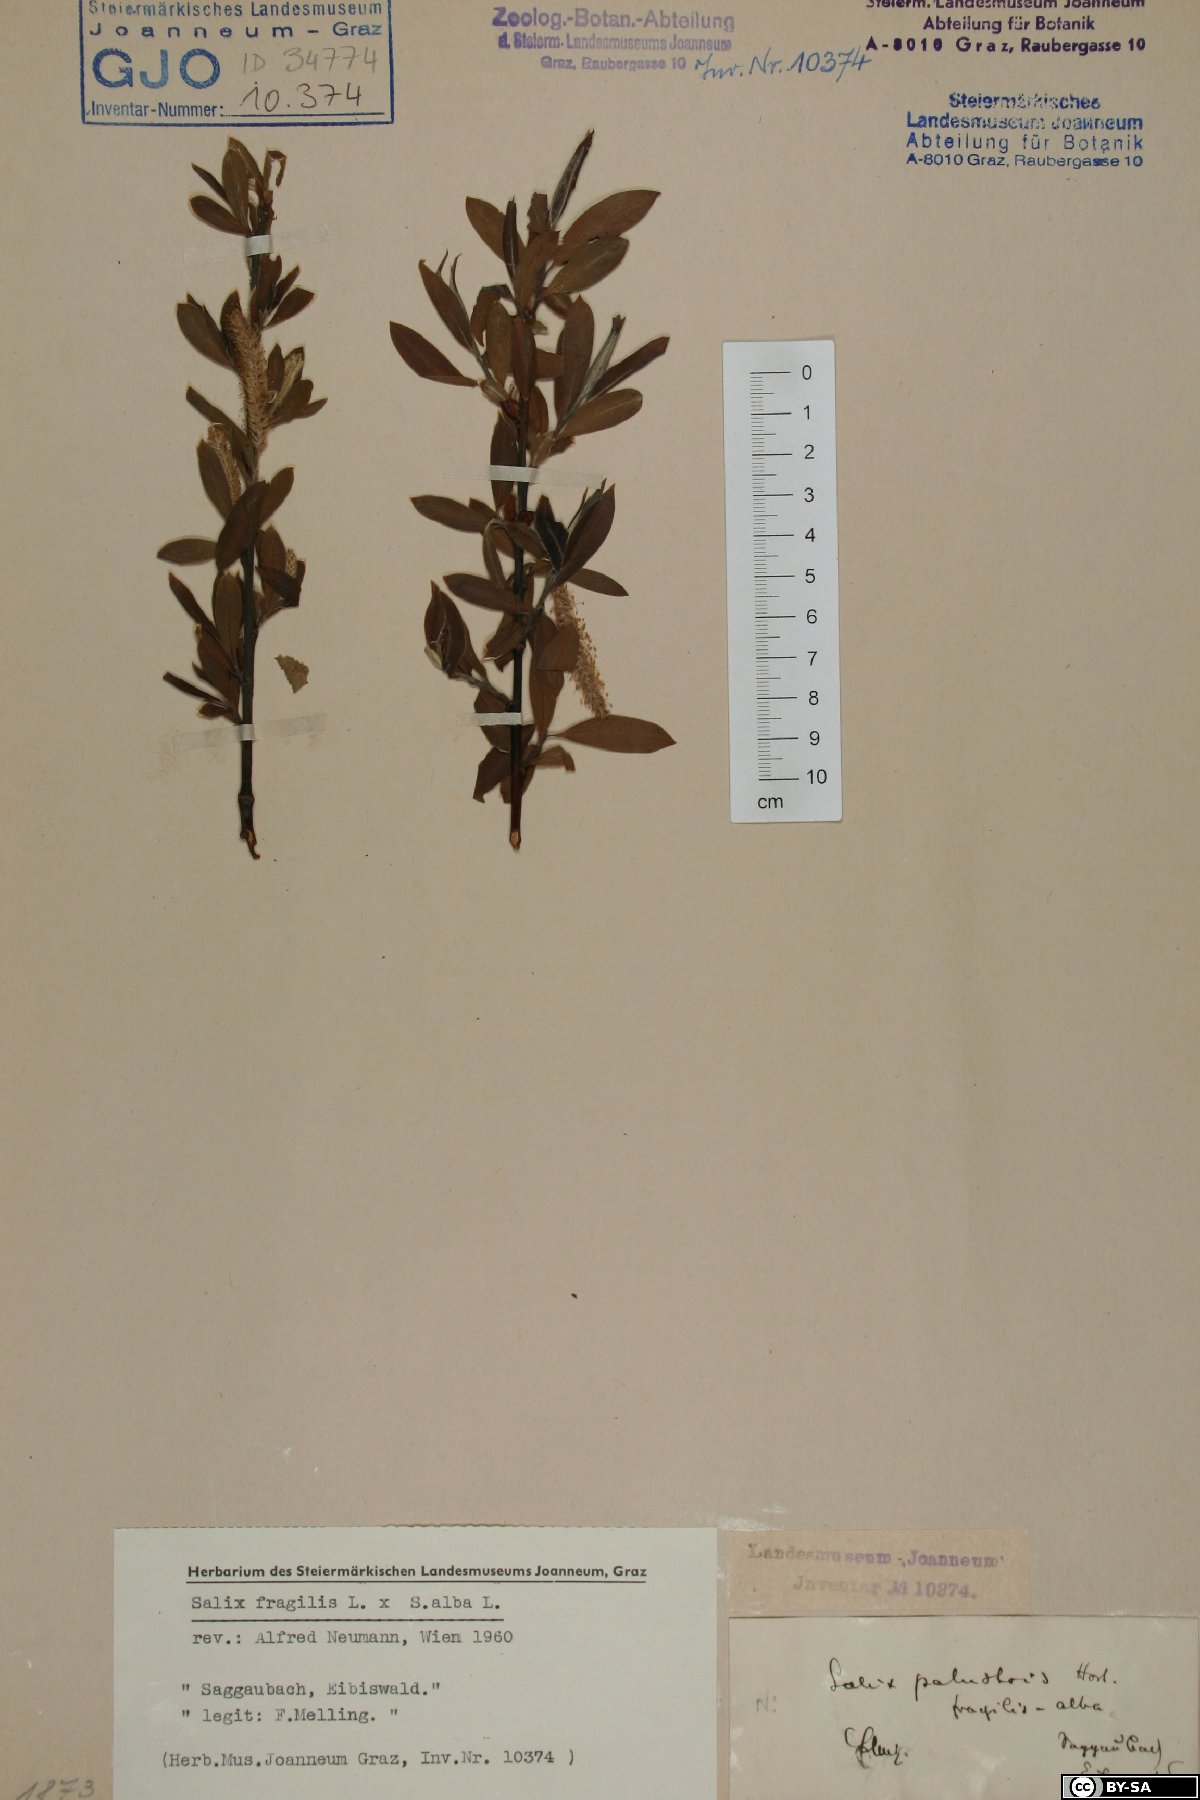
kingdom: Plantae
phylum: Tracheophyta
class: Magnoliopsida
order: Malpighiales
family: Salicaceae
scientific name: Salicaceae
